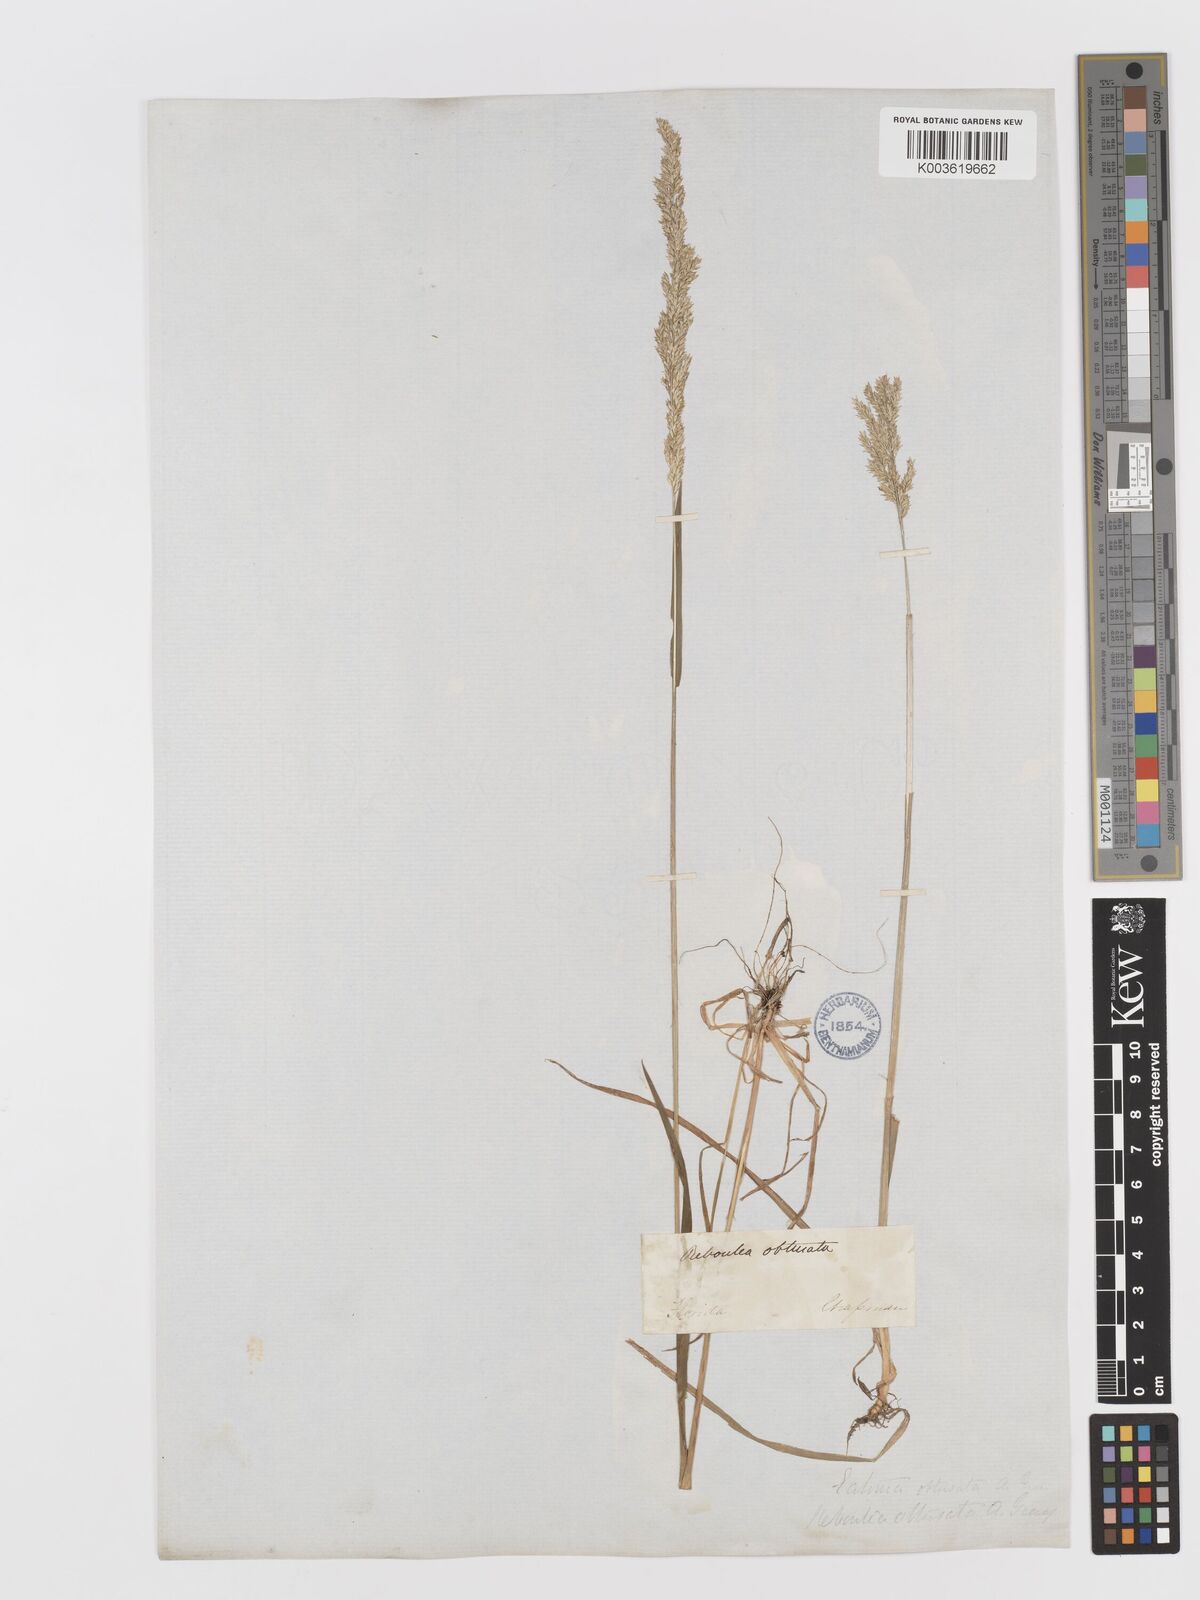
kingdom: Plantae
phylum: Tracheophyta
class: Liliopsida
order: Poales
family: Poaceae
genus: Sphenopholis
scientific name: Sphenopholis obtusata
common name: Prairie grass
